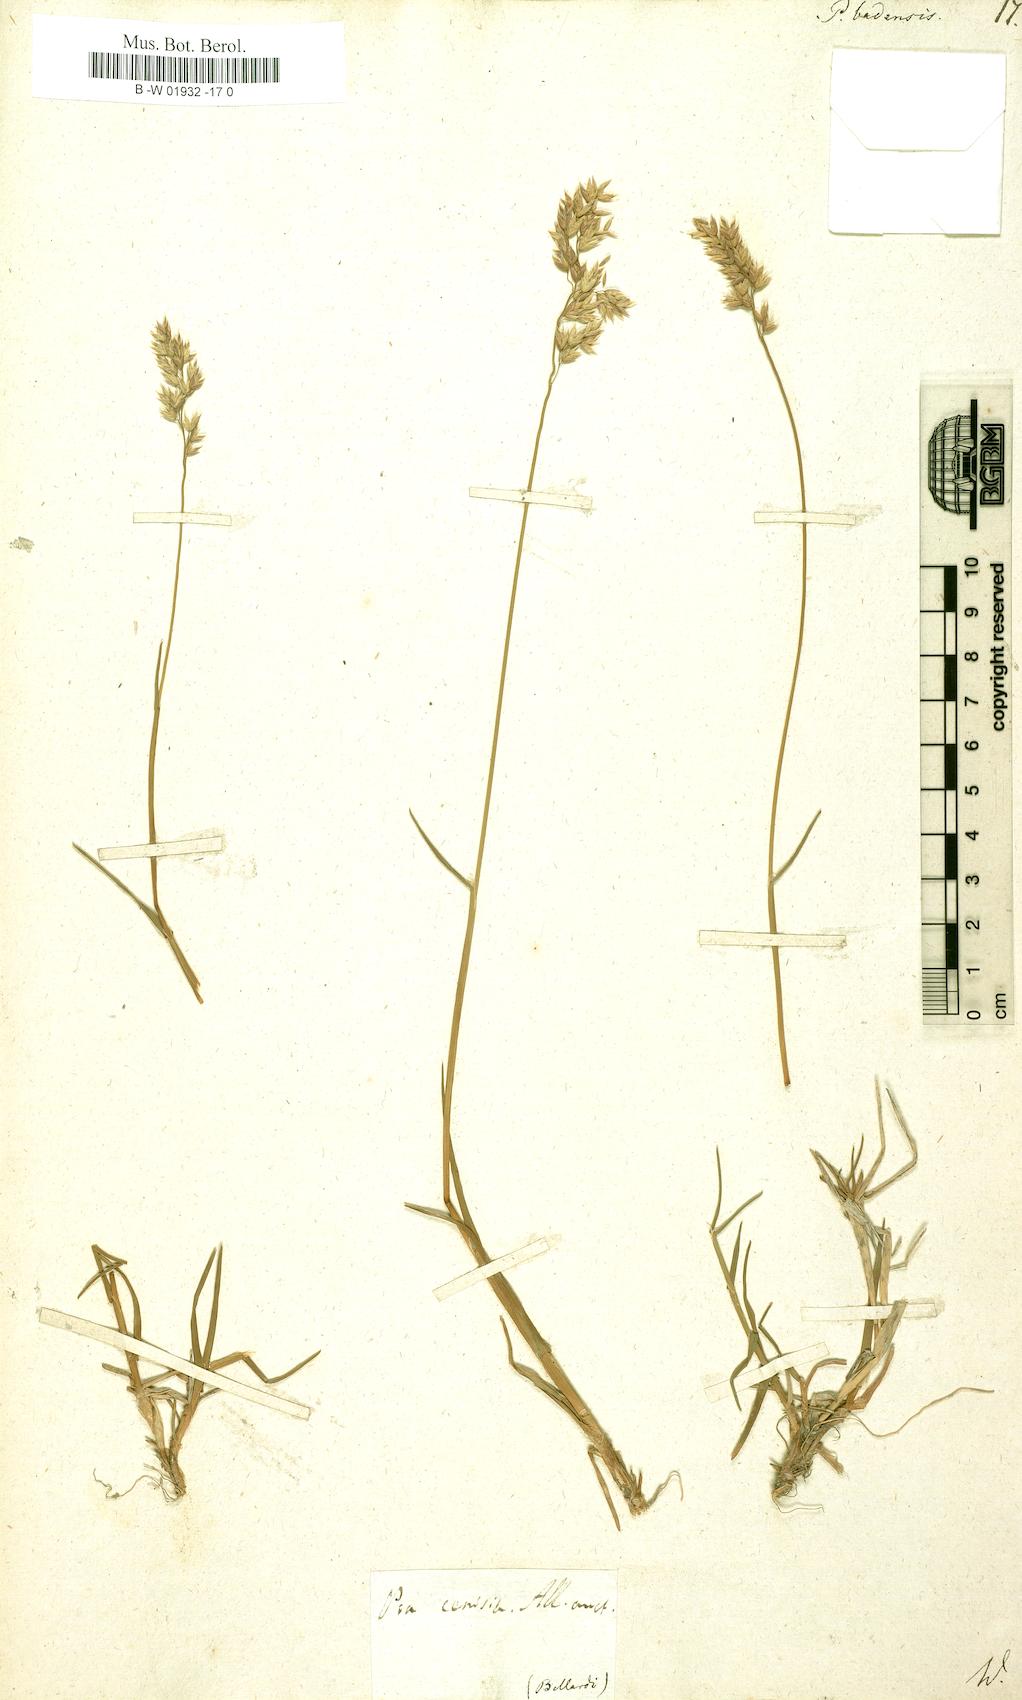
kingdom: Plantae
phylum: Tracheophyta
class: Liliopsida
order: Poales
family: Poaceae
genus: Poa
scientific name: Poa badensis
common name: Baden's bluegrass
